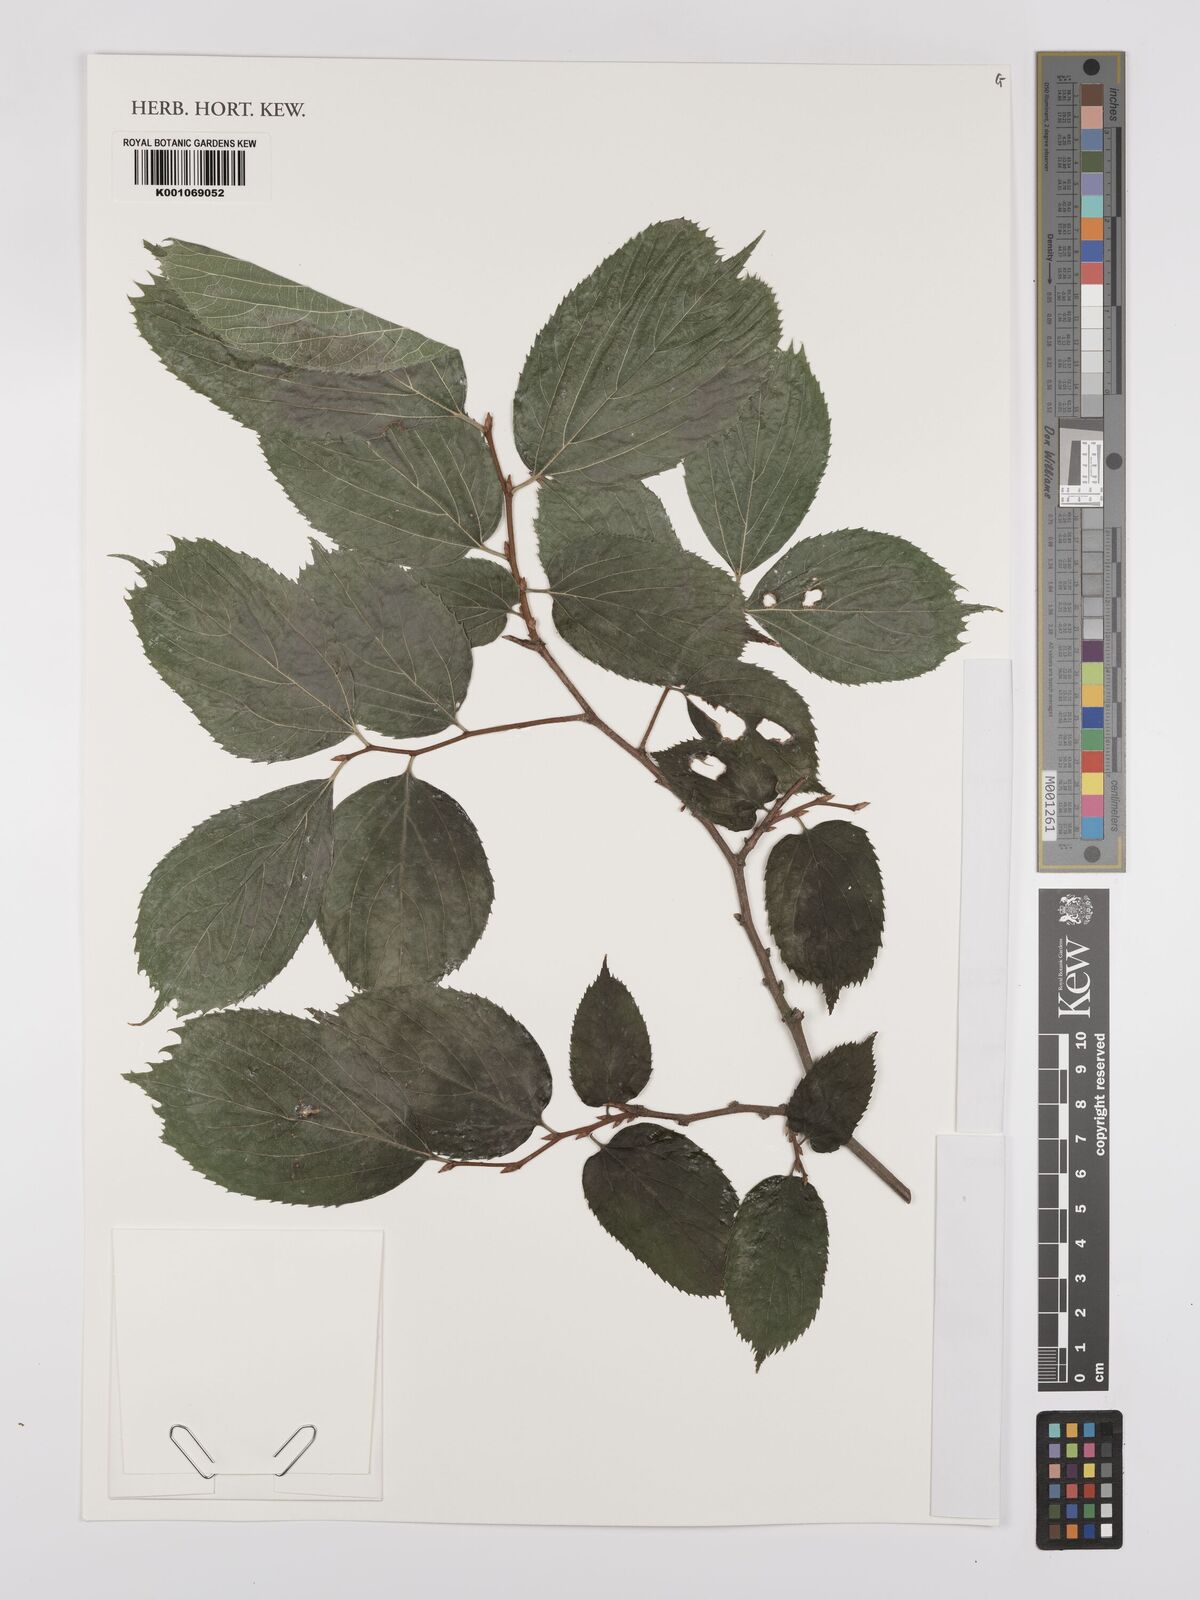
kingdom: Plantae
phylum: Tracheophyta
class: Magnoliopsida
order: Rosales
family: Cannabaceae
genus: Celtis
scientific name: Celtis koraiensis
